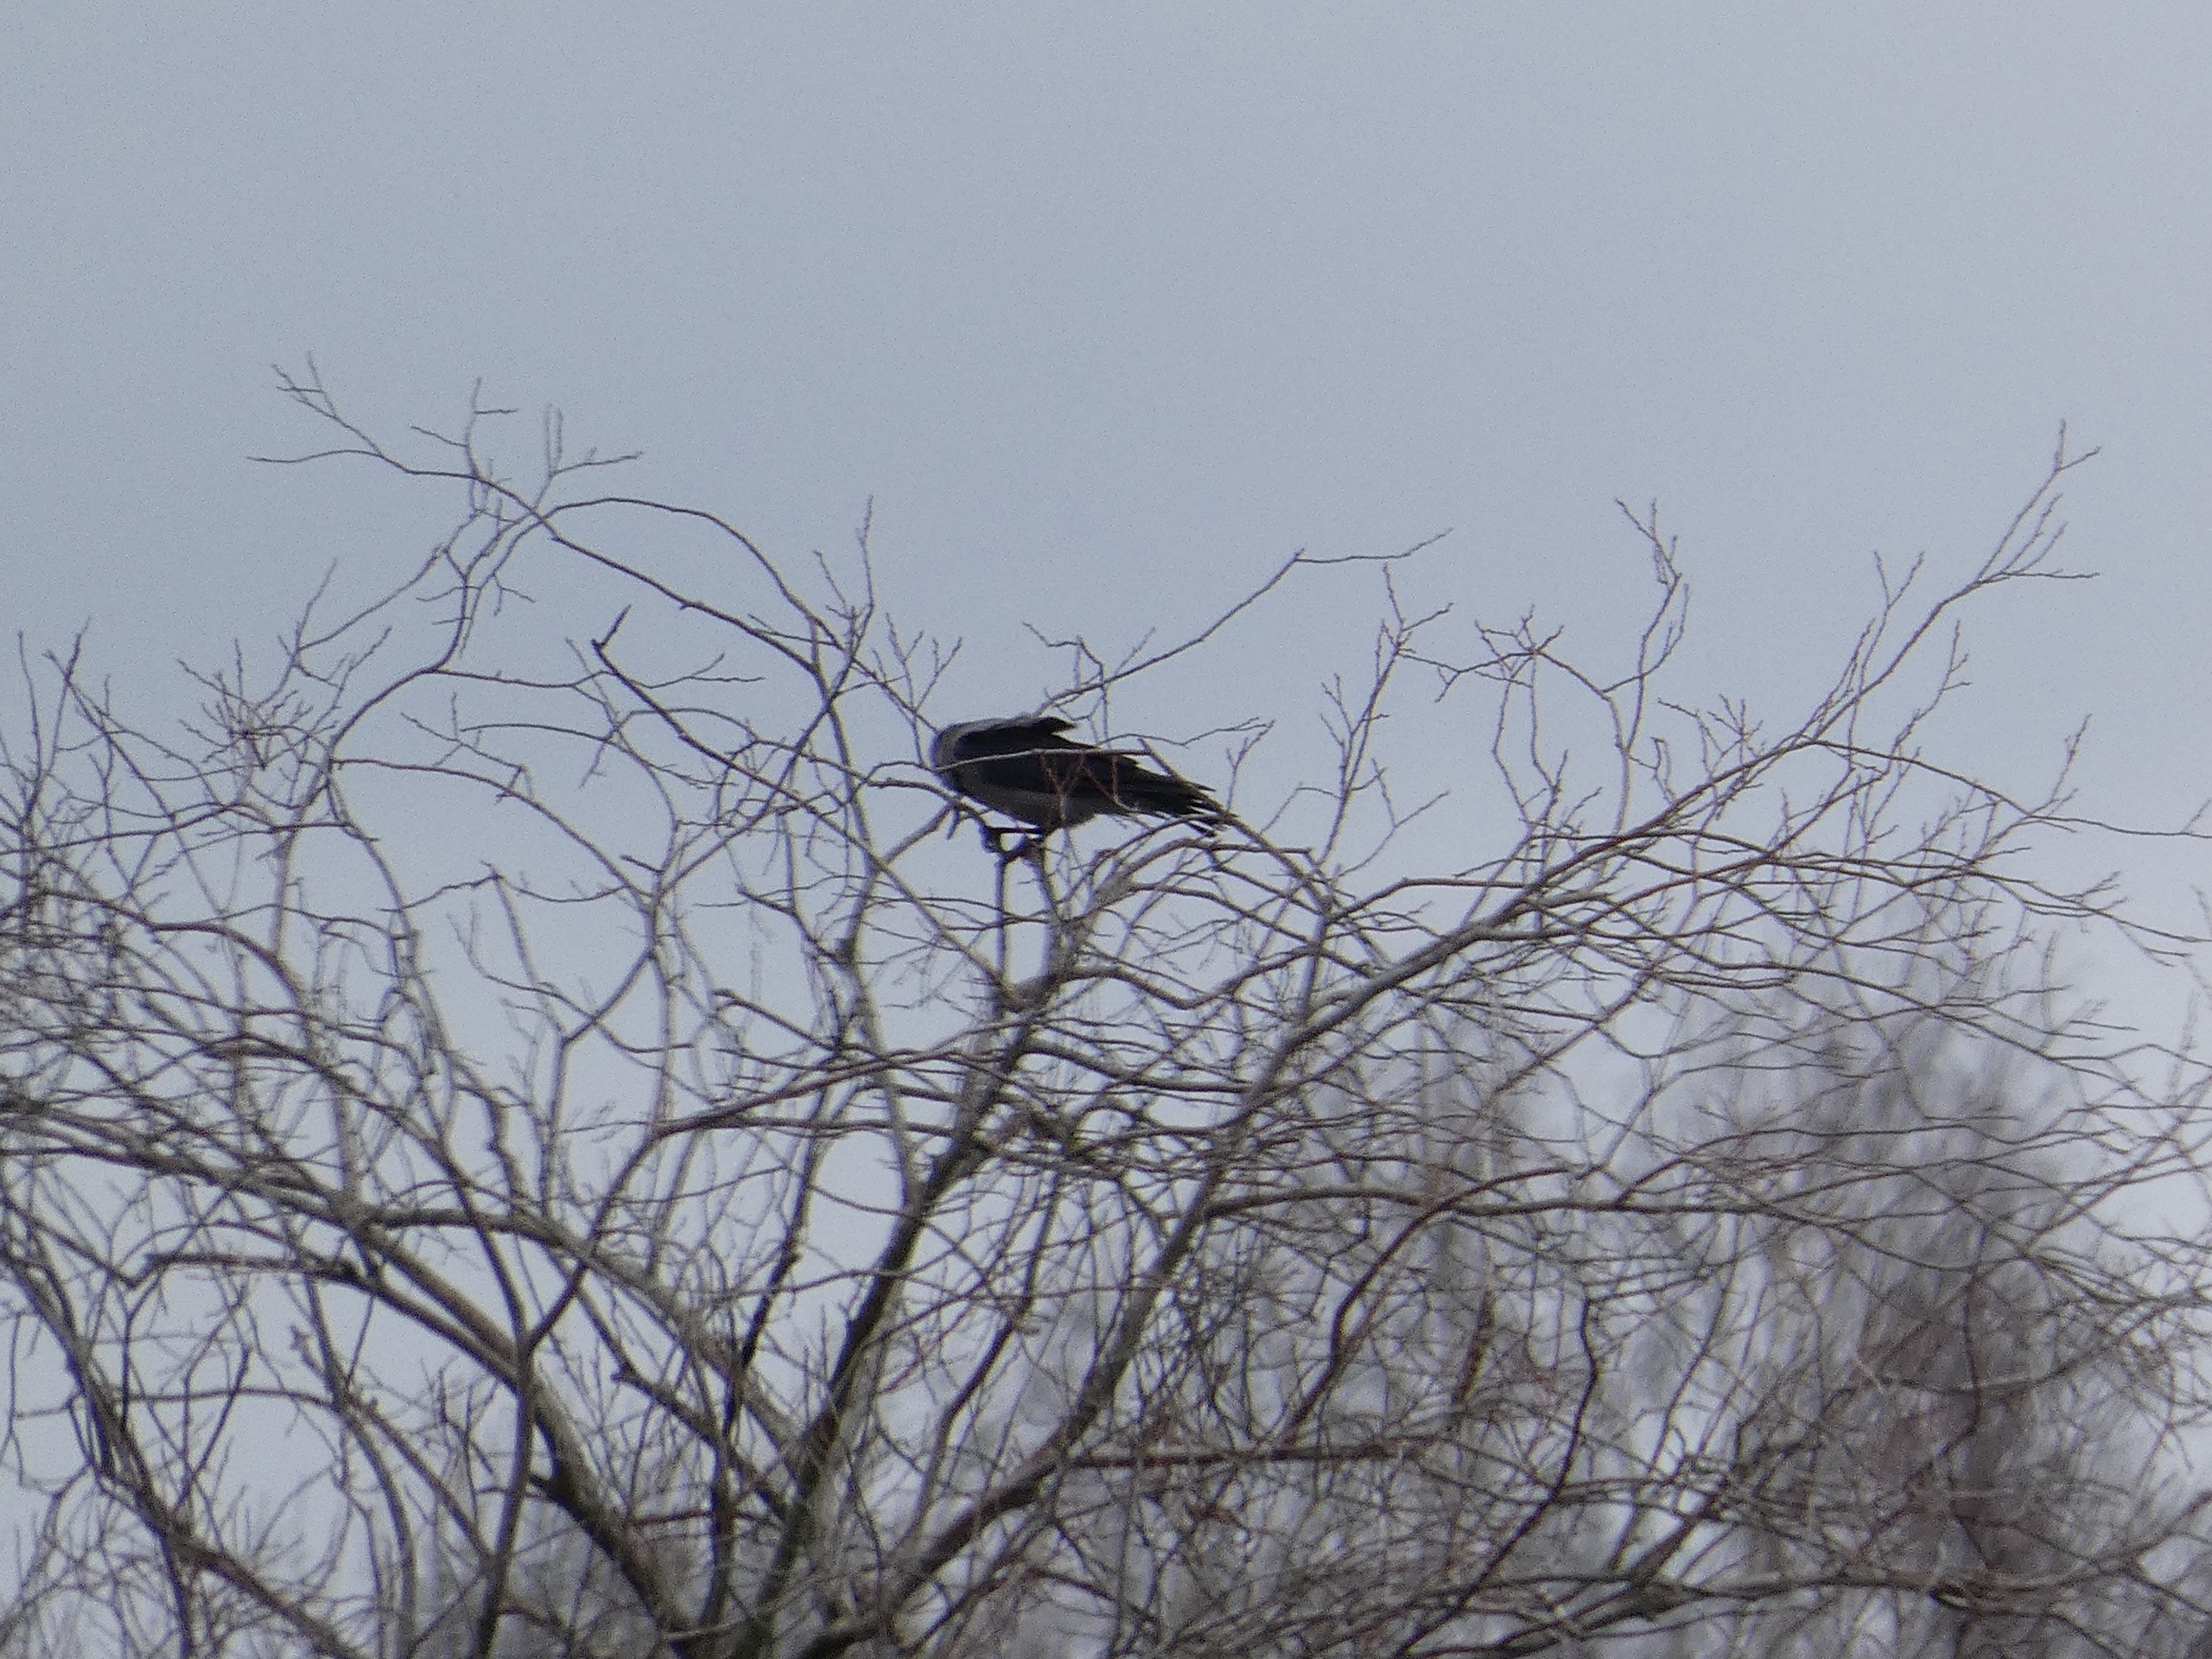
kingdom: Animalia
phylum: Chordata
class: Aves
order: Passeriformes
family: Corvidae
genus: Corvus
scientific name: Corvus cornix
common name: Gråkrage
